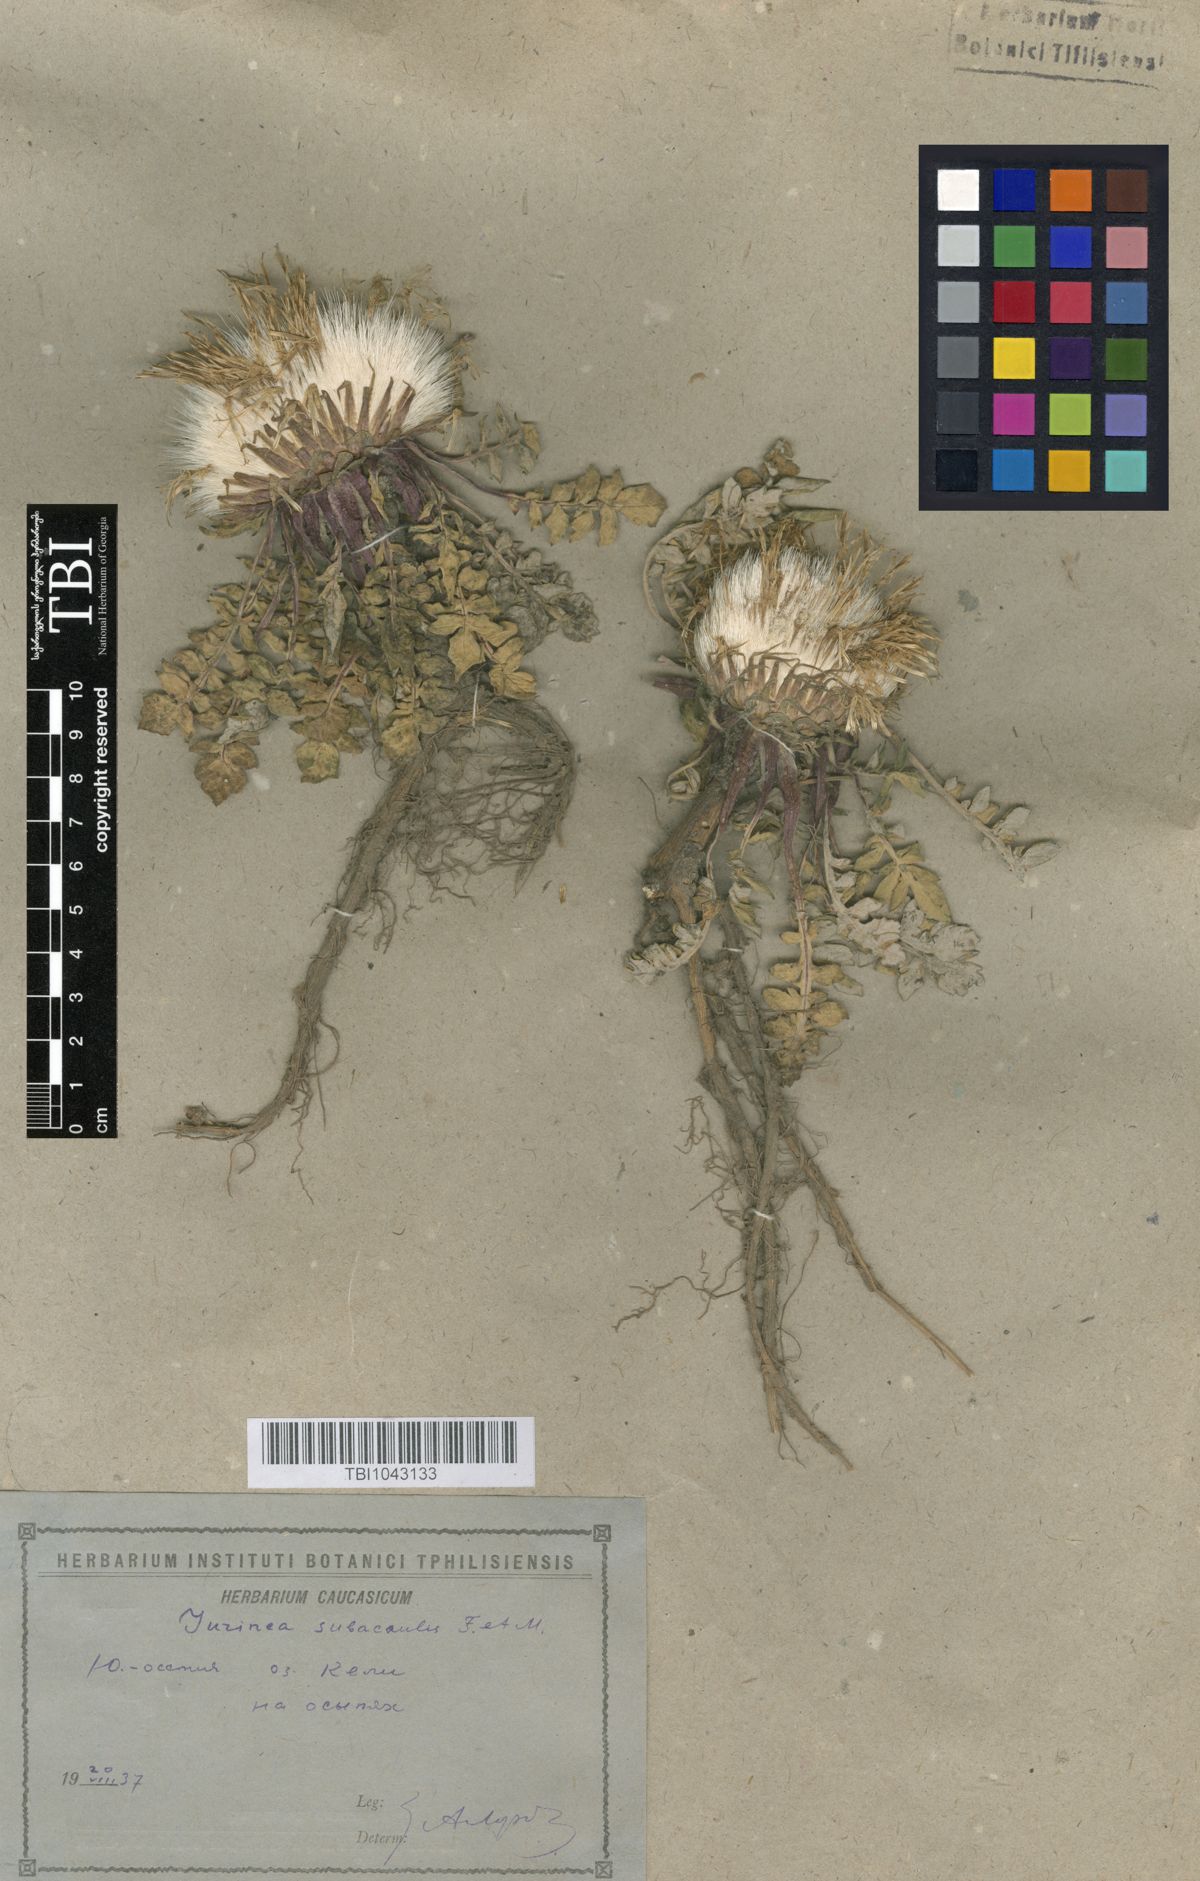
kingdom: Plantae
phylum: Tracheophyta
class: Magnoliopsida
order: Asterales
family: Asteraceae
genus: Jurinea
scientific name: Jurinea moschus
